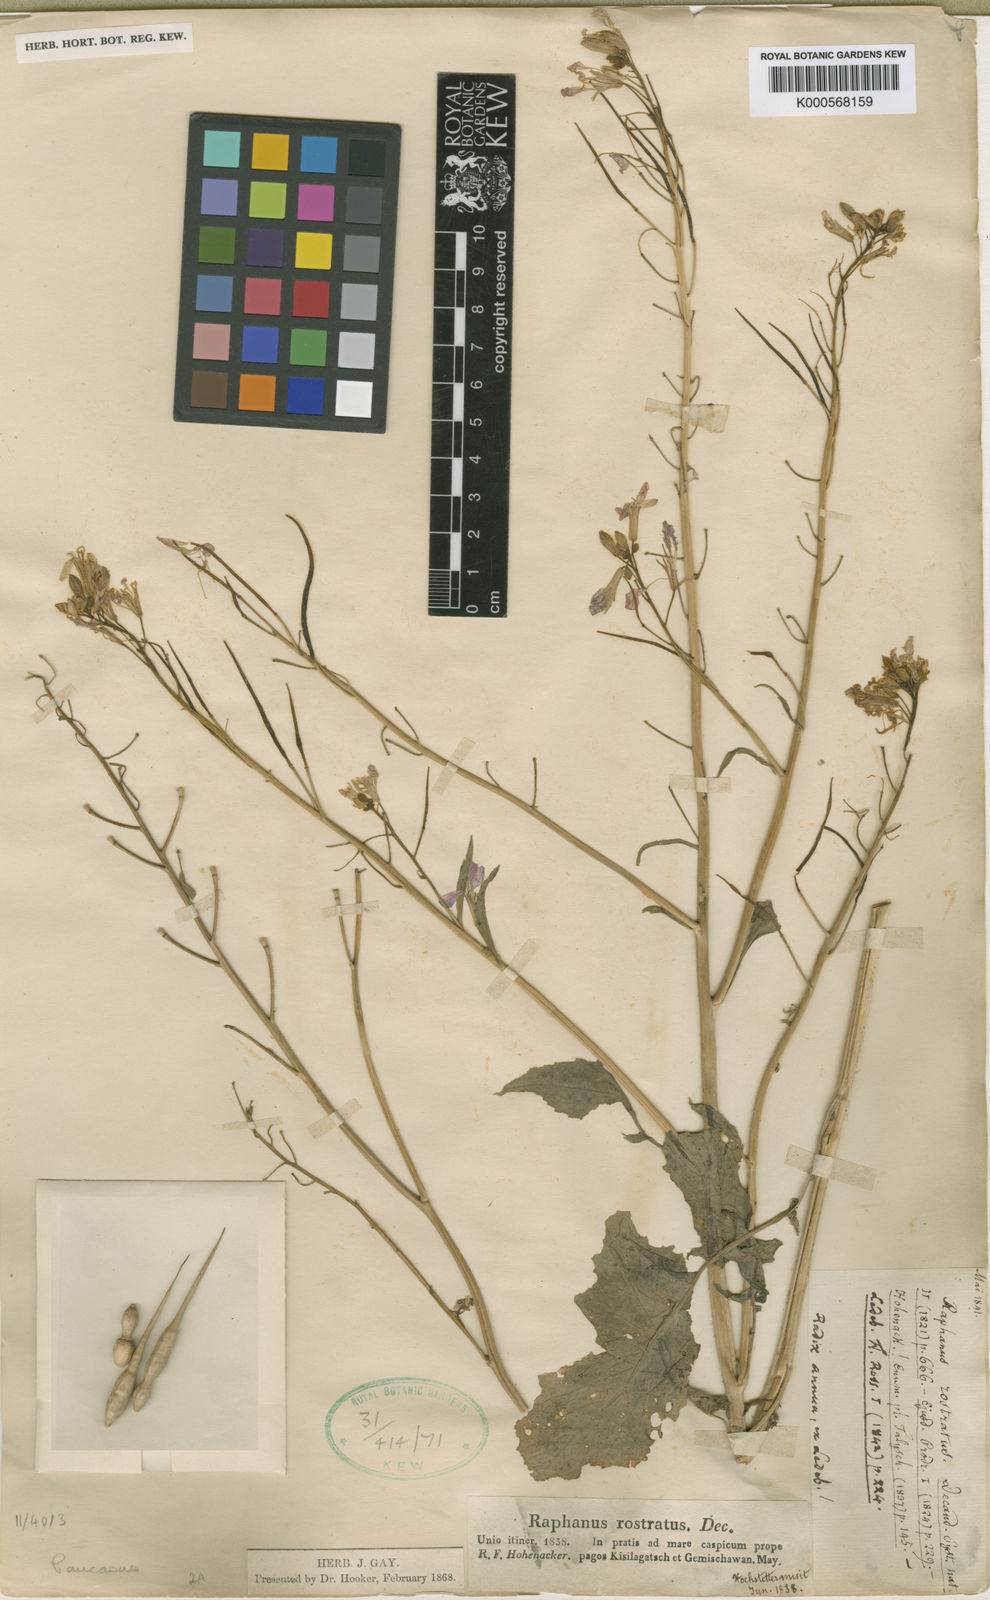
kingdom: Plantae
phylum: Tracheophyta
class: Magnoliopsida
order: Brassicales
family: Brassicaceae
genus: Raphanus
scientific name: Raphanus raphanistrum
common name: Wild radish
